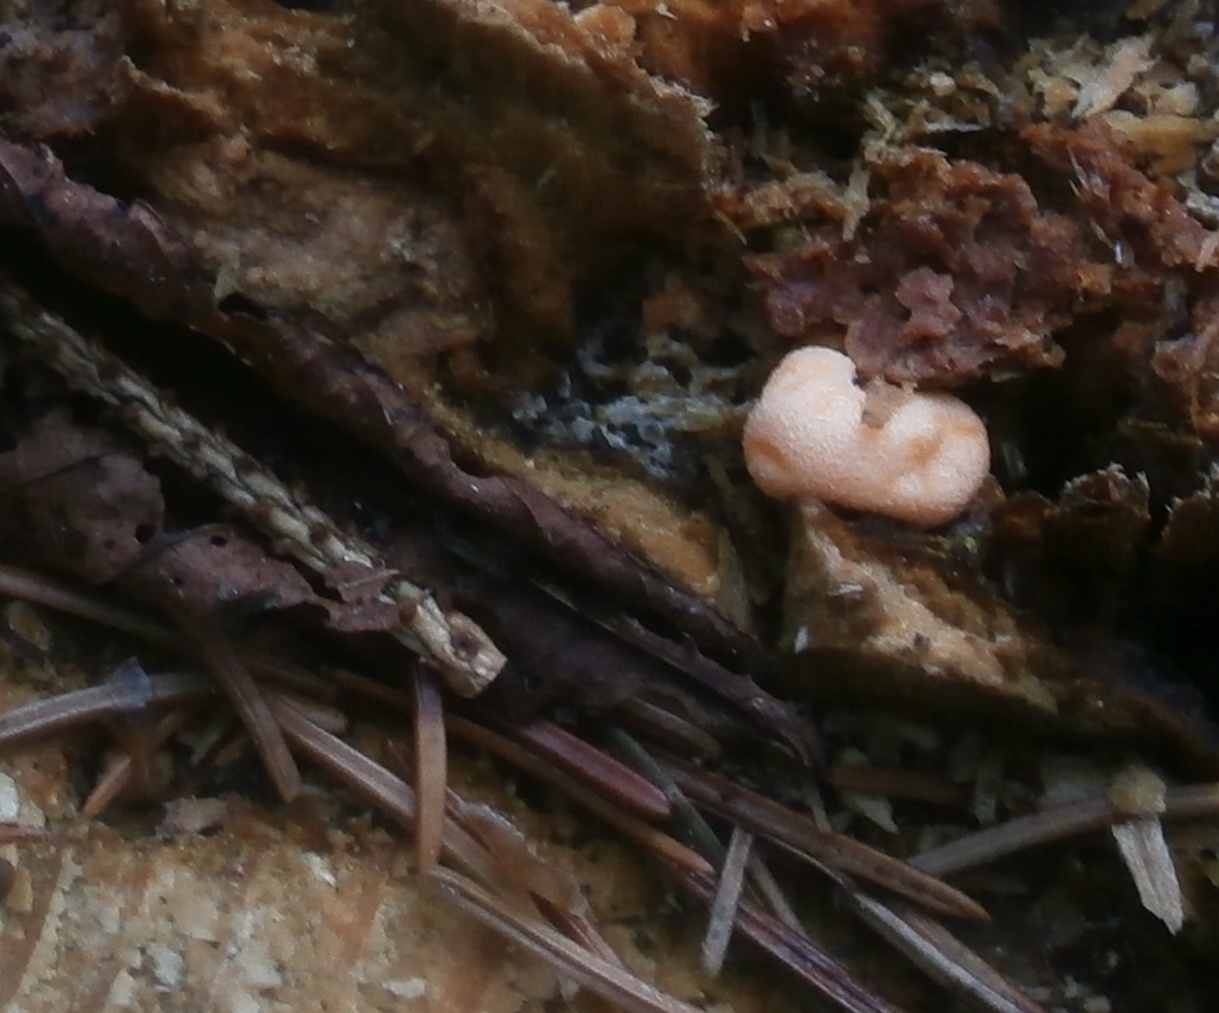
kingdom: Protozoa
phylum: Mycetozoa
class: Myxomycetes
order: Cribrariales
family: Tubiferaceae
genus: Lycogala
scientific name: Lycogala epidendrum
